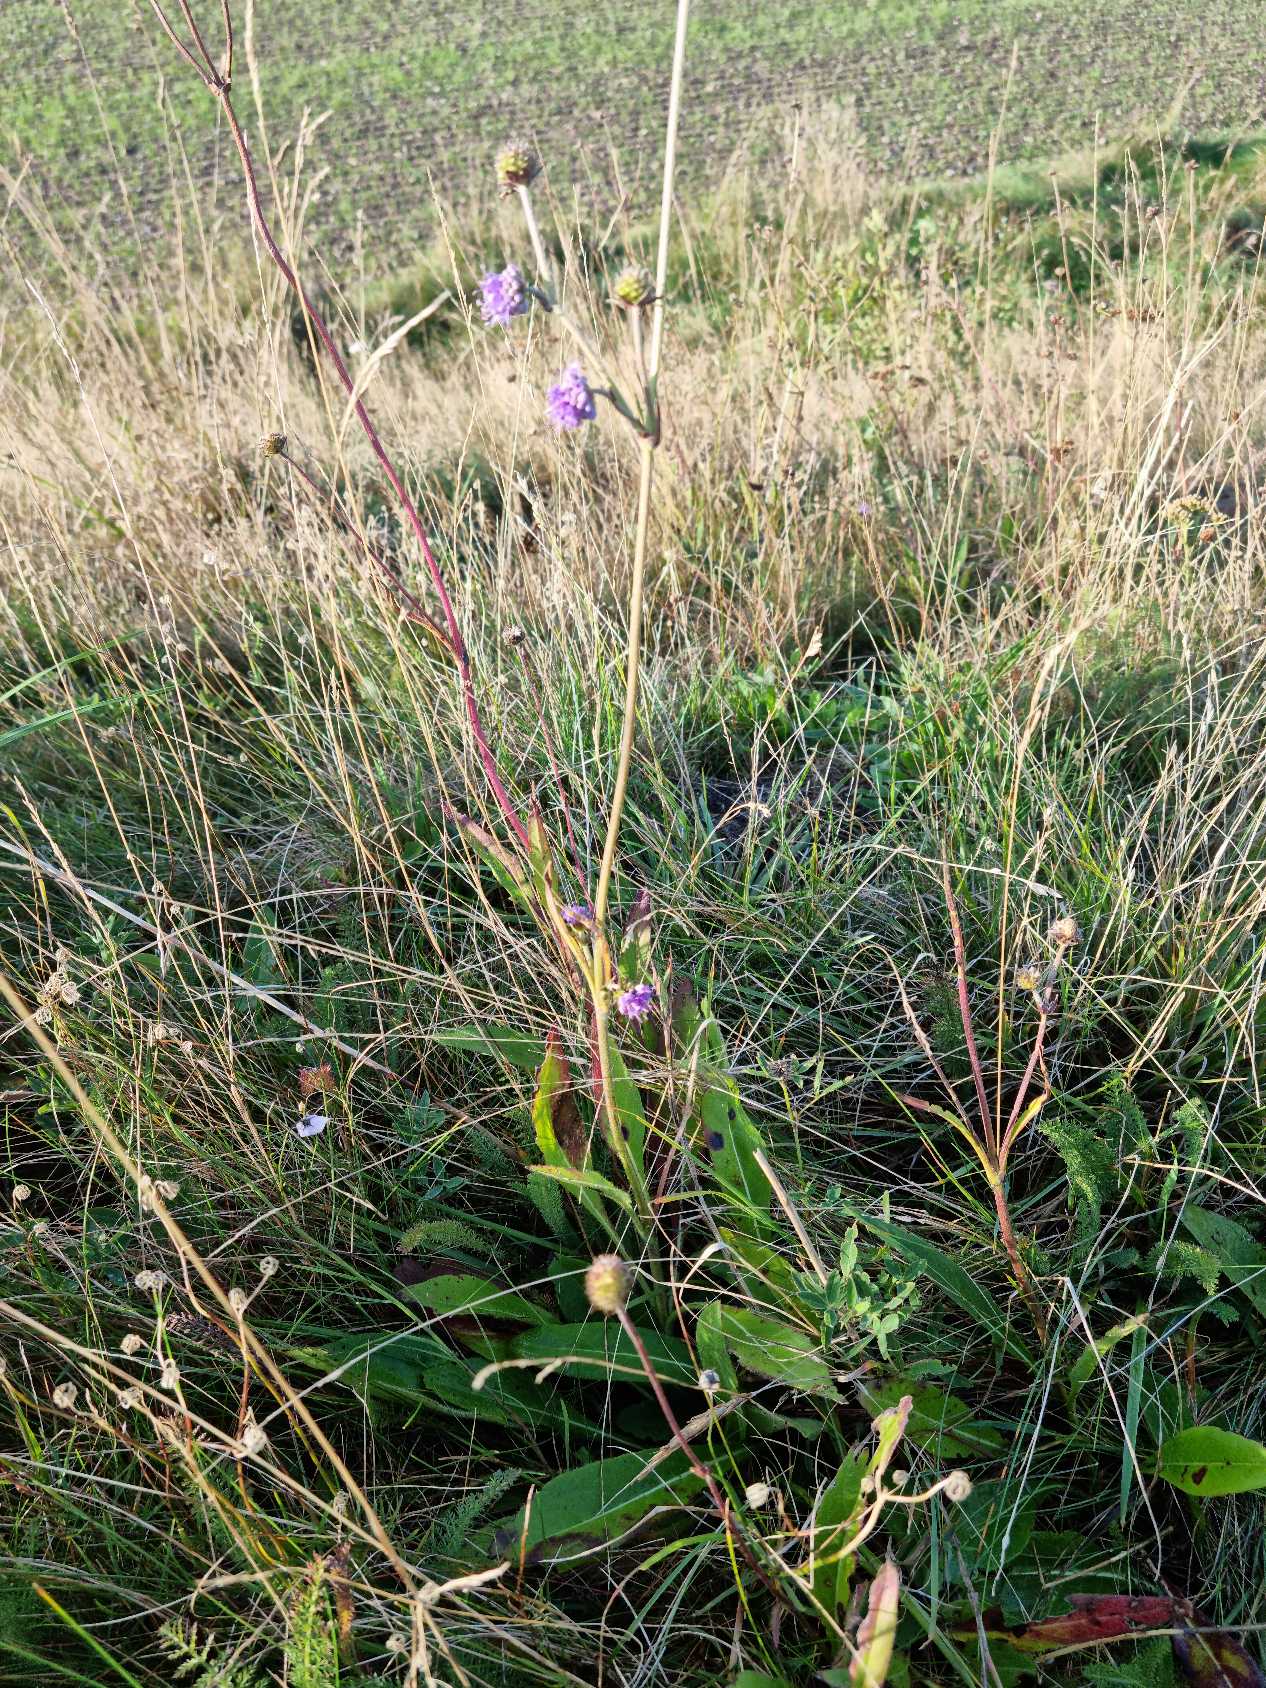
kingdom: Plantae
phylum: Tracheophyta
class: Magnoliopsida
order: Dipsacales
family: Caprifoliaceae
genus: Succisa
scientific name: Succisa pratensis
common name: Djævelsbid
